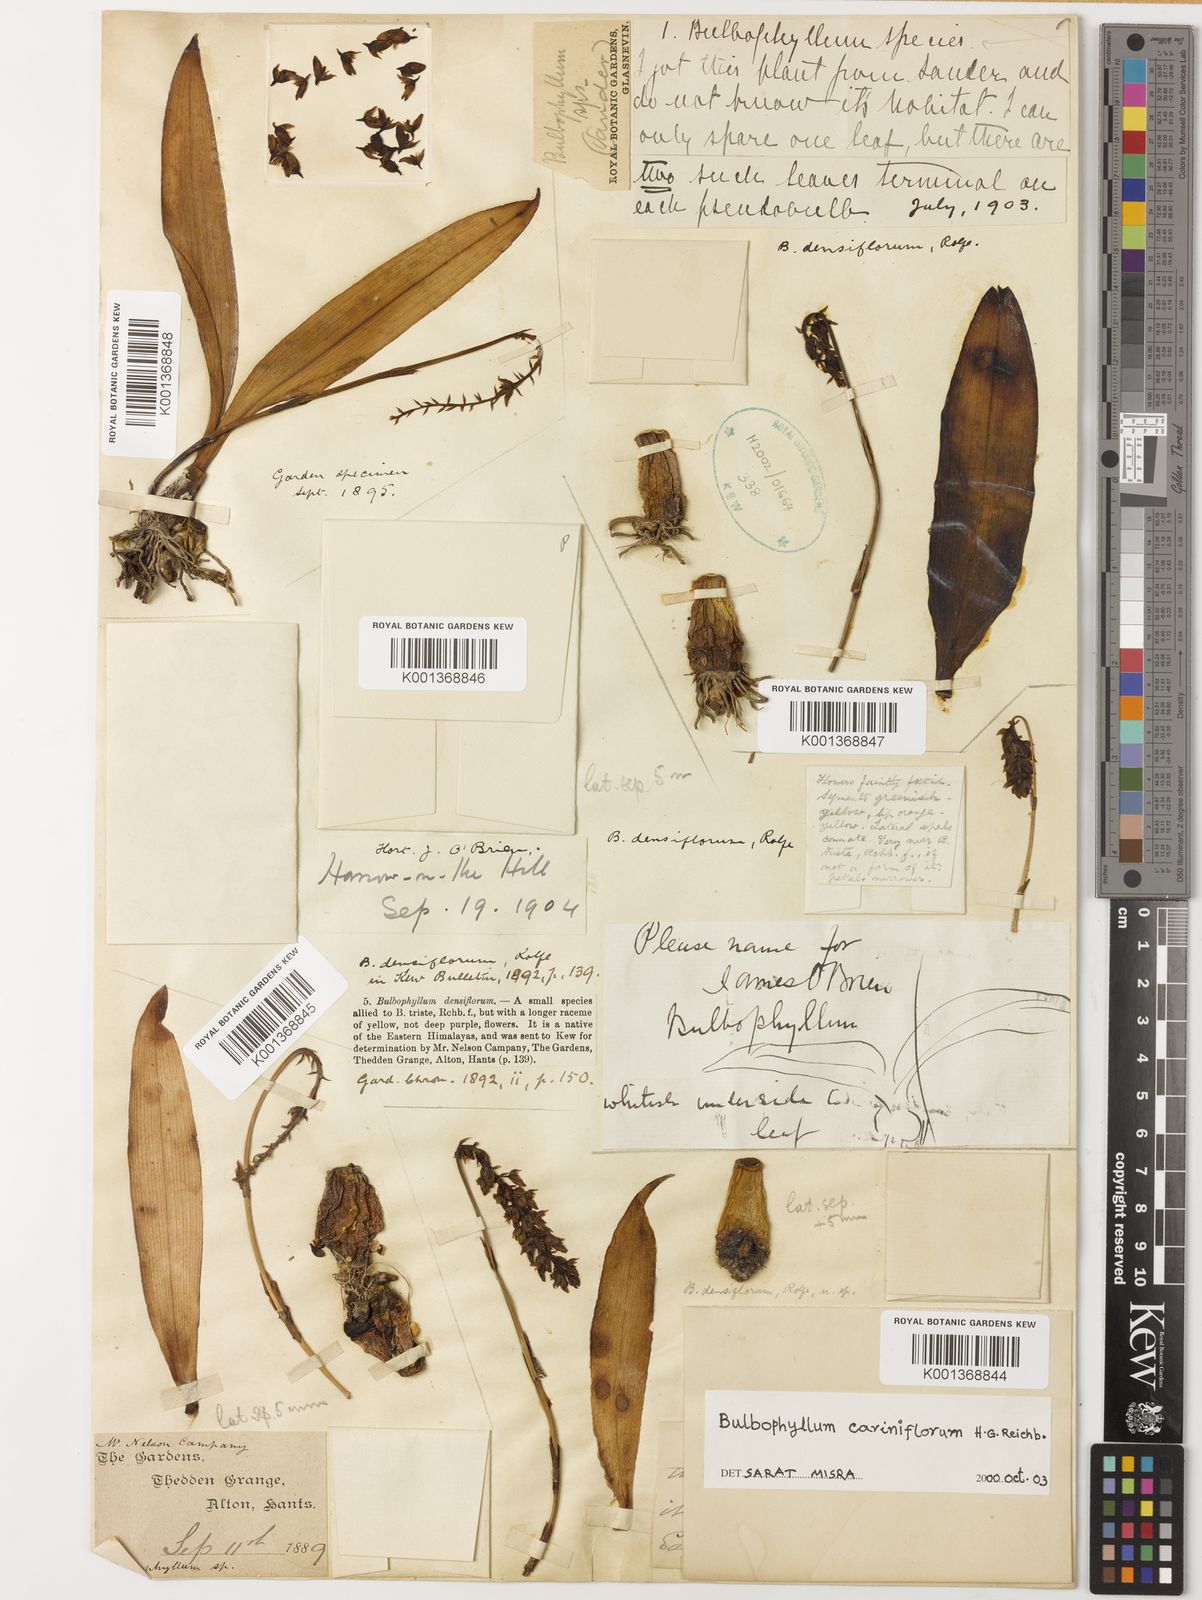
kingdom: Plantae
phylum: Tracheophyta
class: Liliopsida
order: Asparagales
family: Orchidaceae
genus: Bulbophyllum
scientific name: Bulbophyllum cariniflorum
